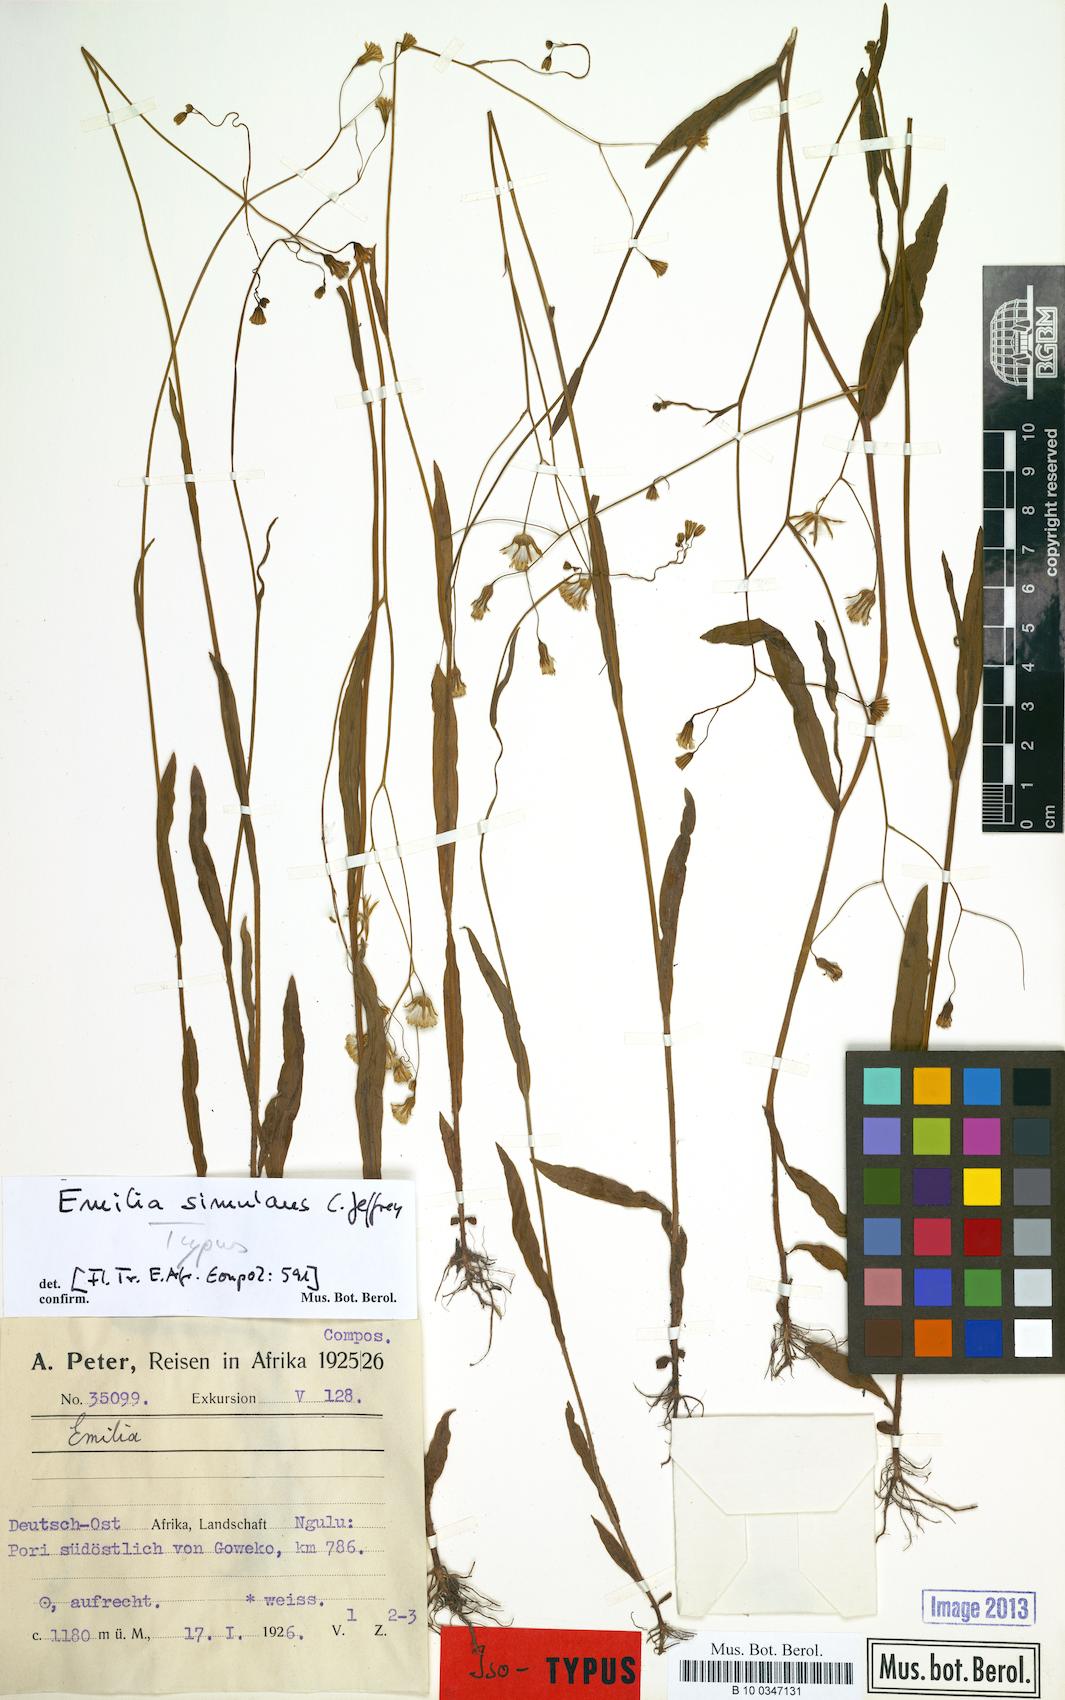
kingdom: Plantae
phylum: Tracheophyta
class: Magnoliopsida
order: Asterales
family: Asteraceae
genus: Emilia
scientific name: Emilia simulans
